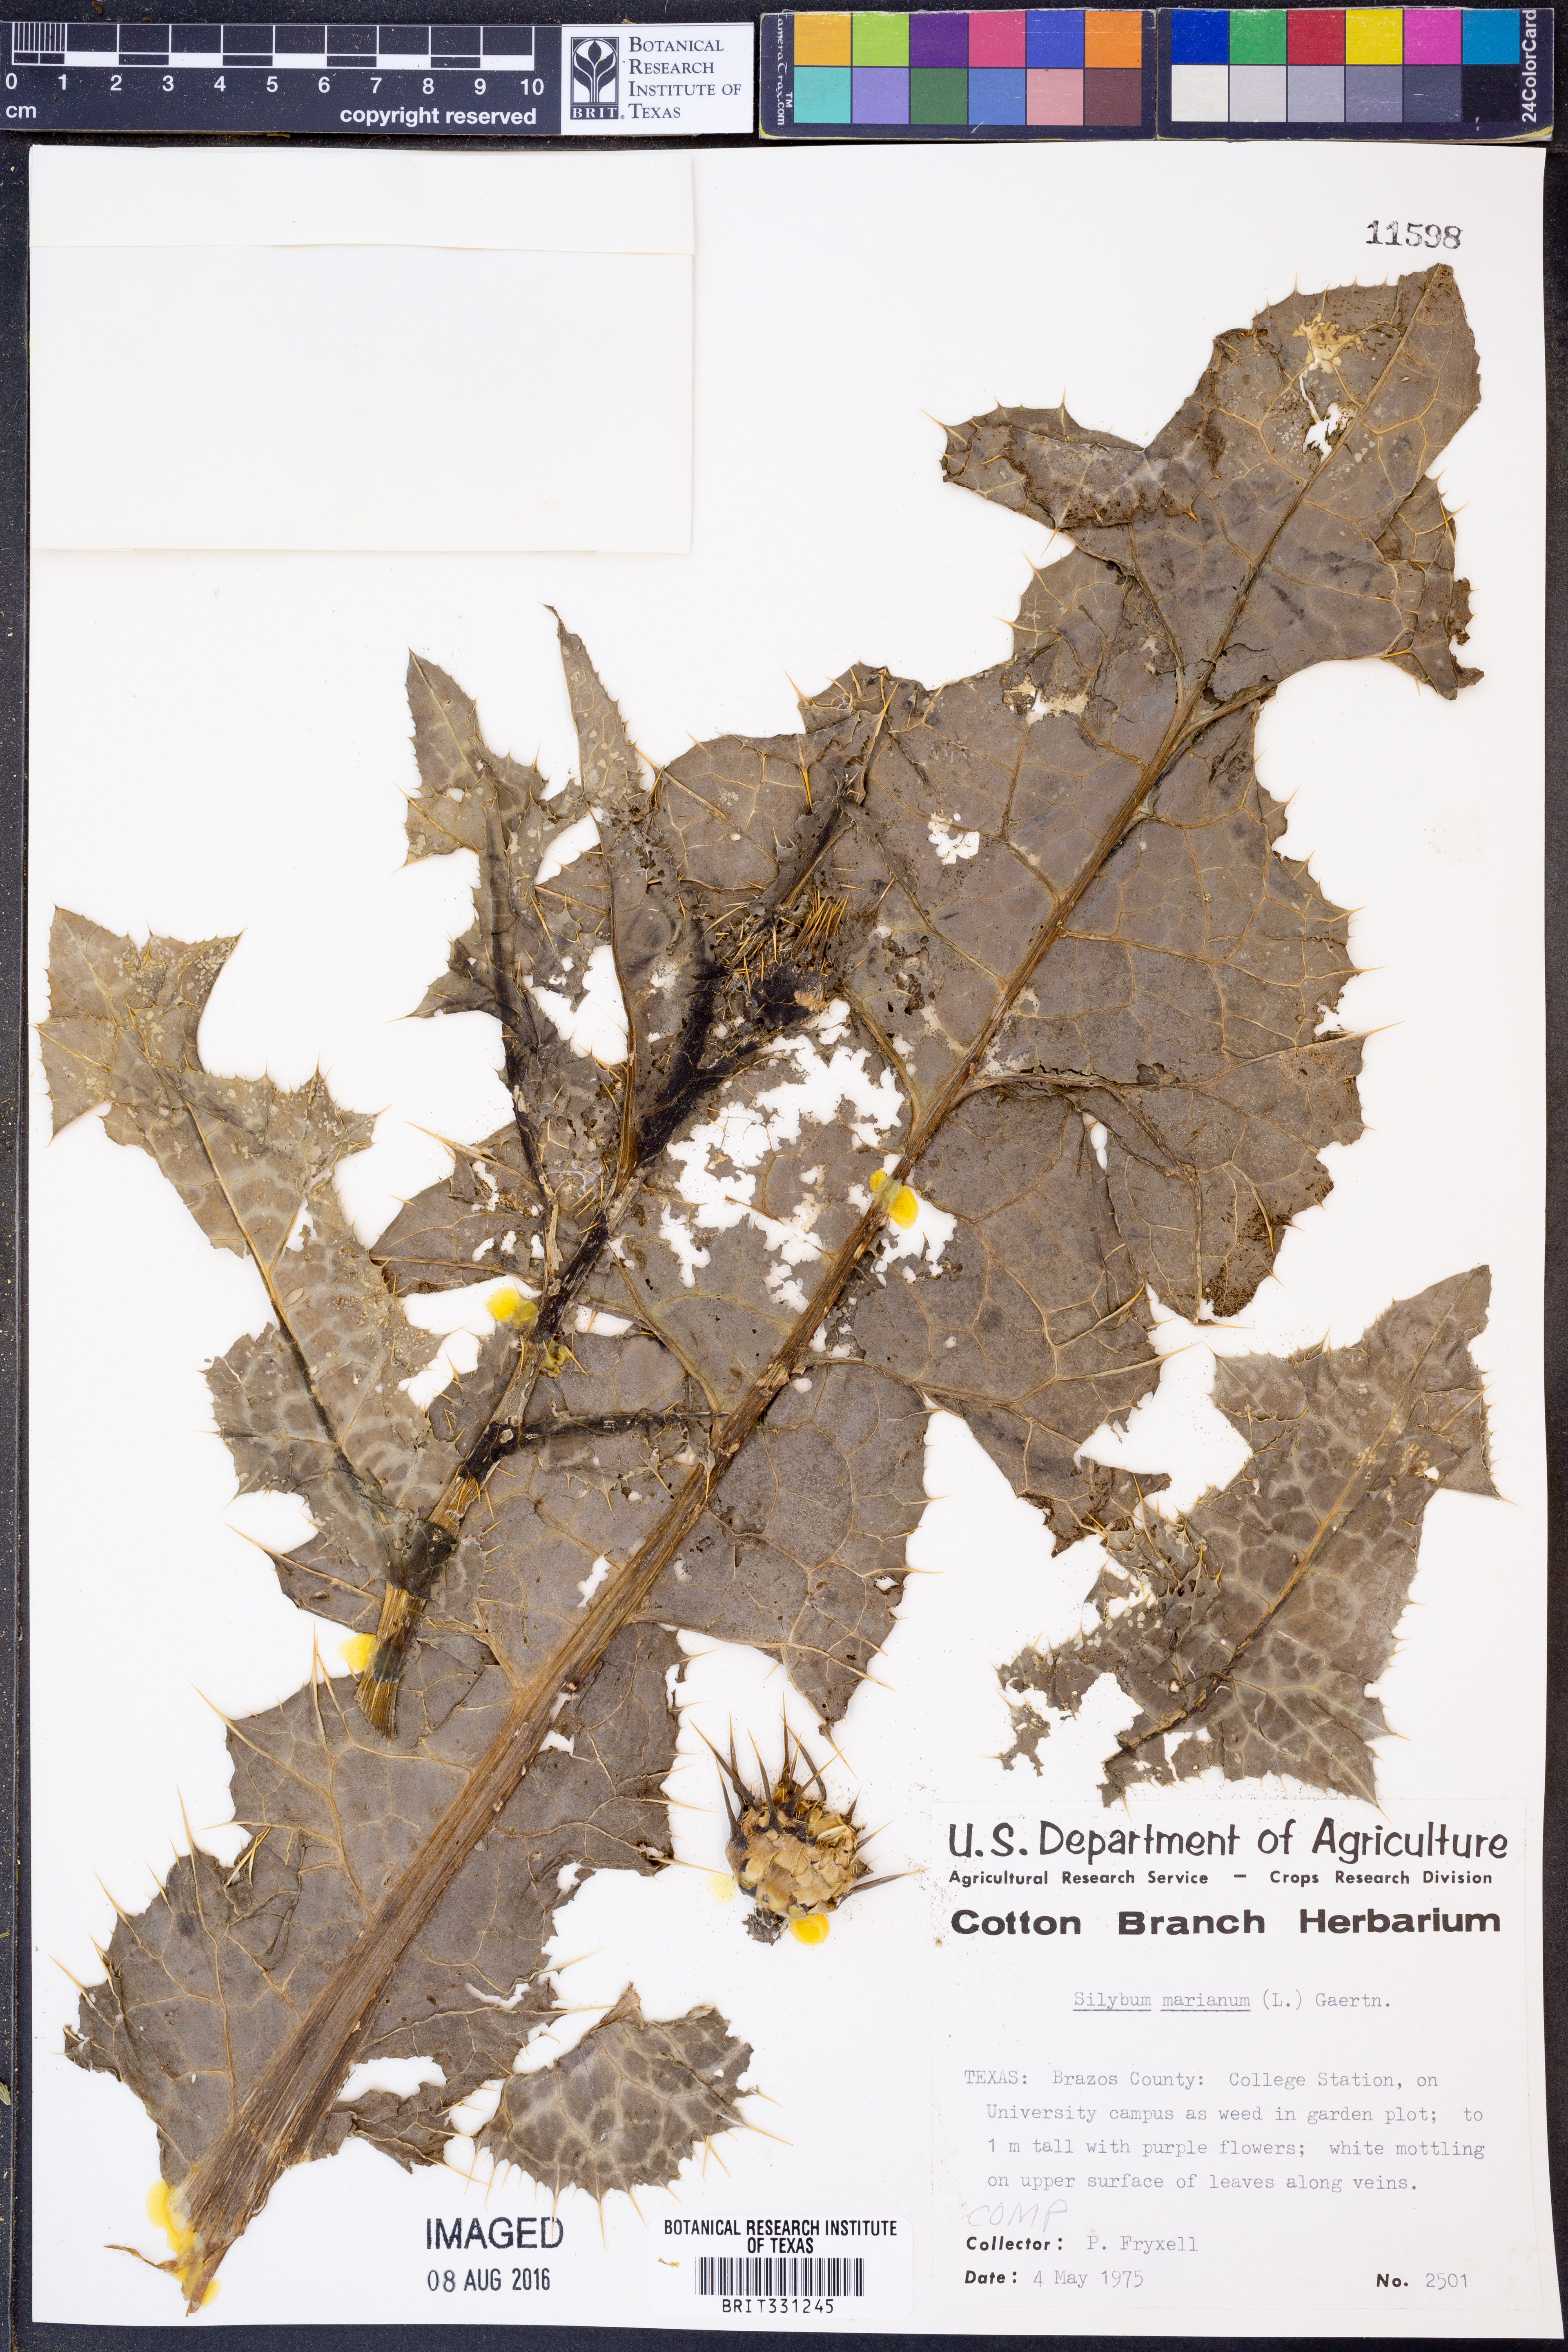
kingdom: Plantae
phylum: Tracheophyta
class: Magnoliopsida
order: Asterales
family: Asteraceae
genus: Silybum
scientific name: Silybum marianum
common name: Milk thistle
